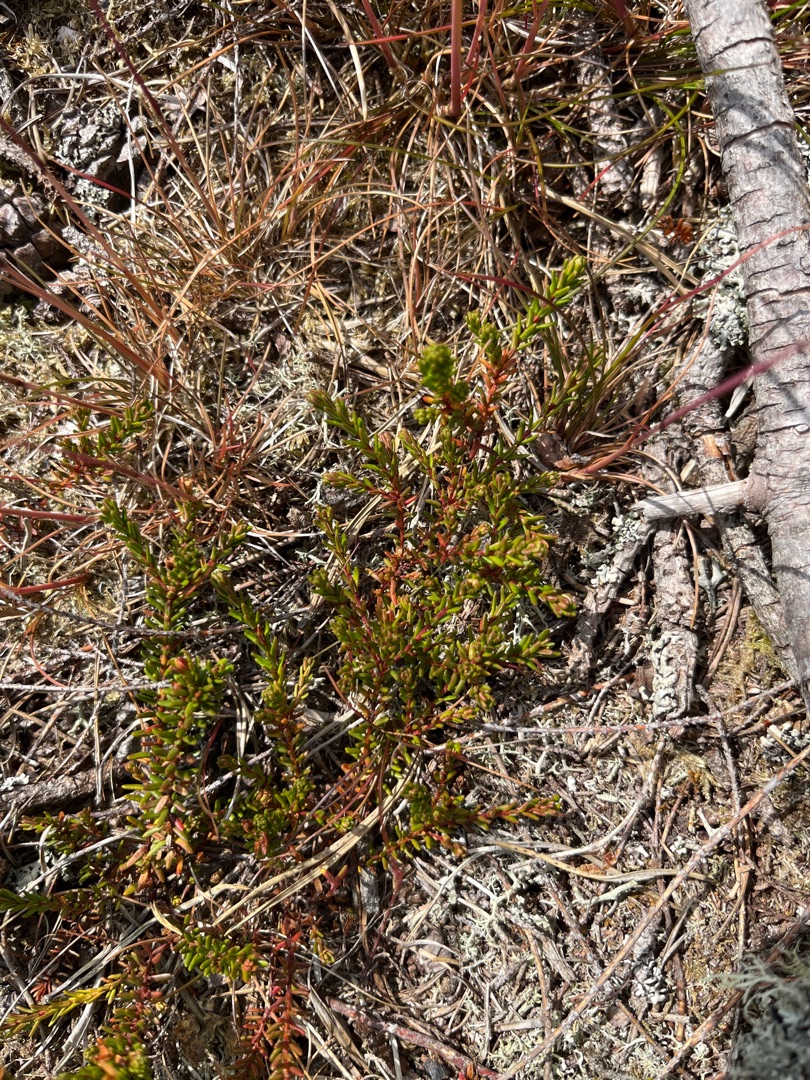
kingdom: Plantae
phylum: Tracheophyta
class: Magnoliopsida
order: Ericales
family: Ericaceae
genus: Empetrum
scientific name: Empetrum nigrum
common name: Revling
